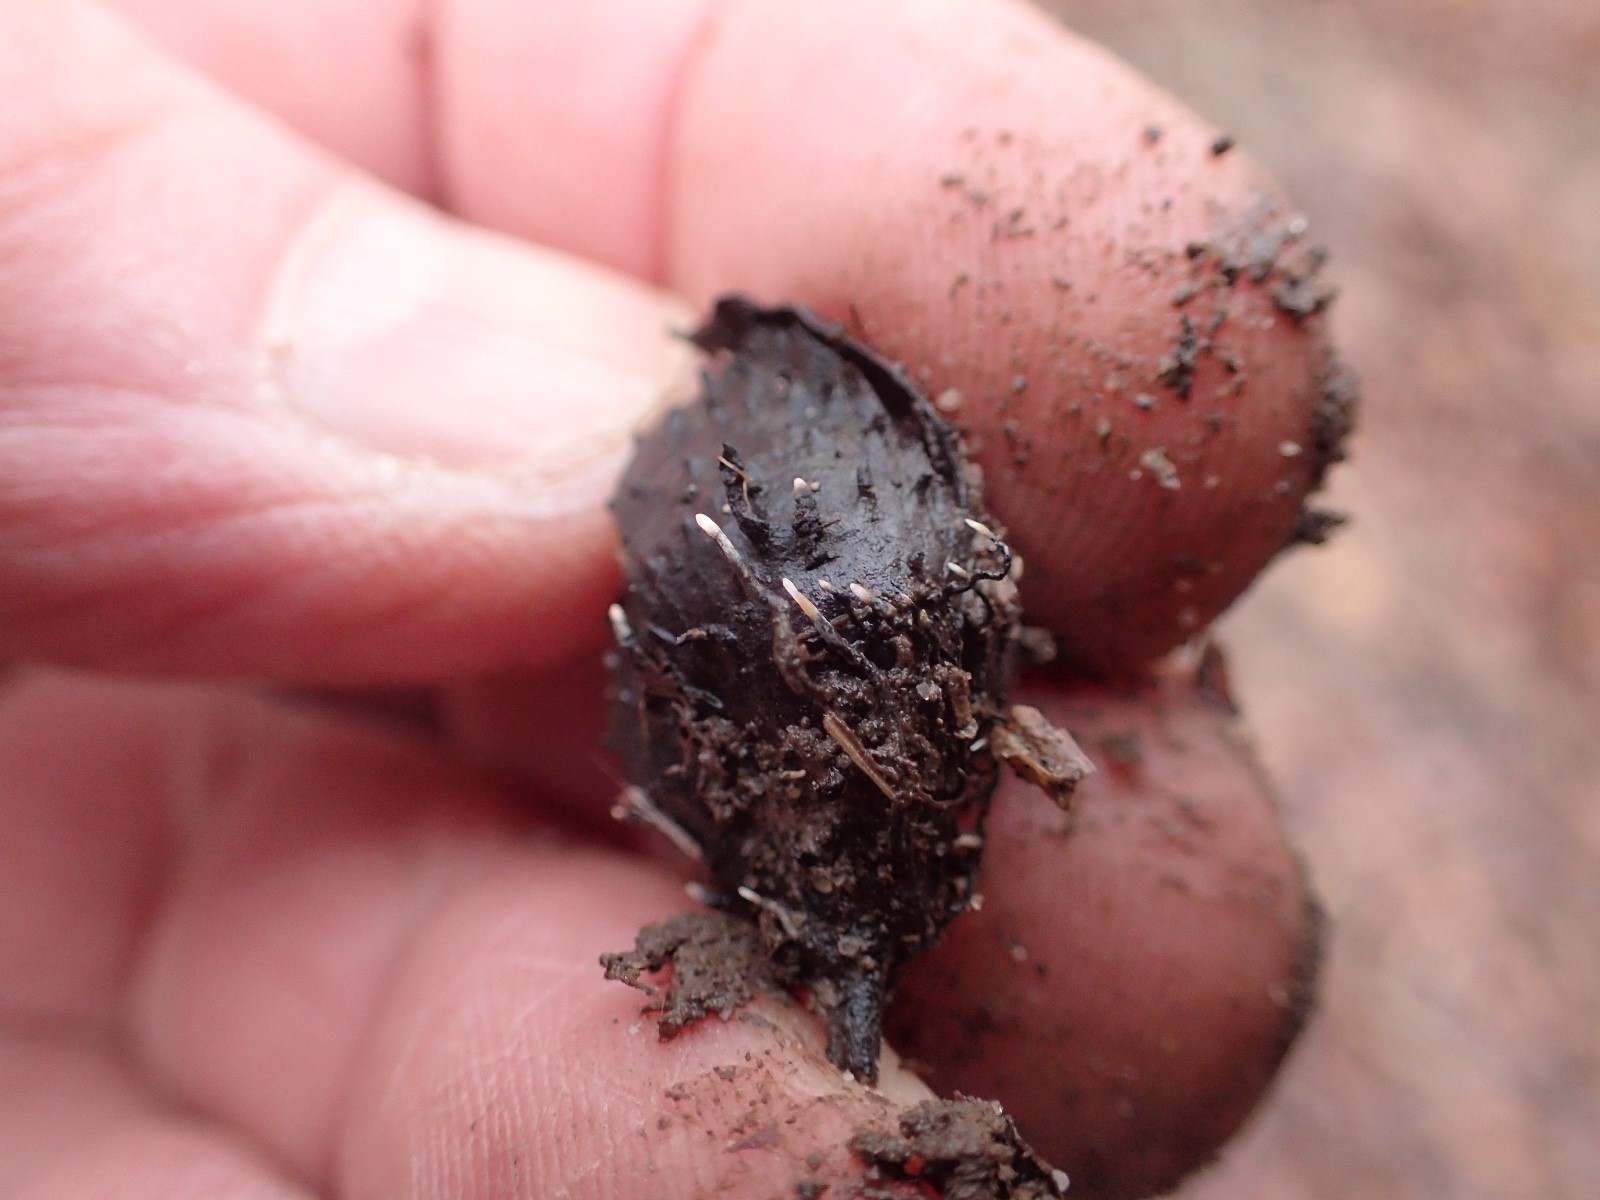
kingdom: Fungi
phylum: Ascomycota
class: Sordariomycetes
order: Xylariales
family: Xylariaceae
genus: Xylaria
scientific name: Xylaria carpophila
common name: bogskål-stødsvamp
